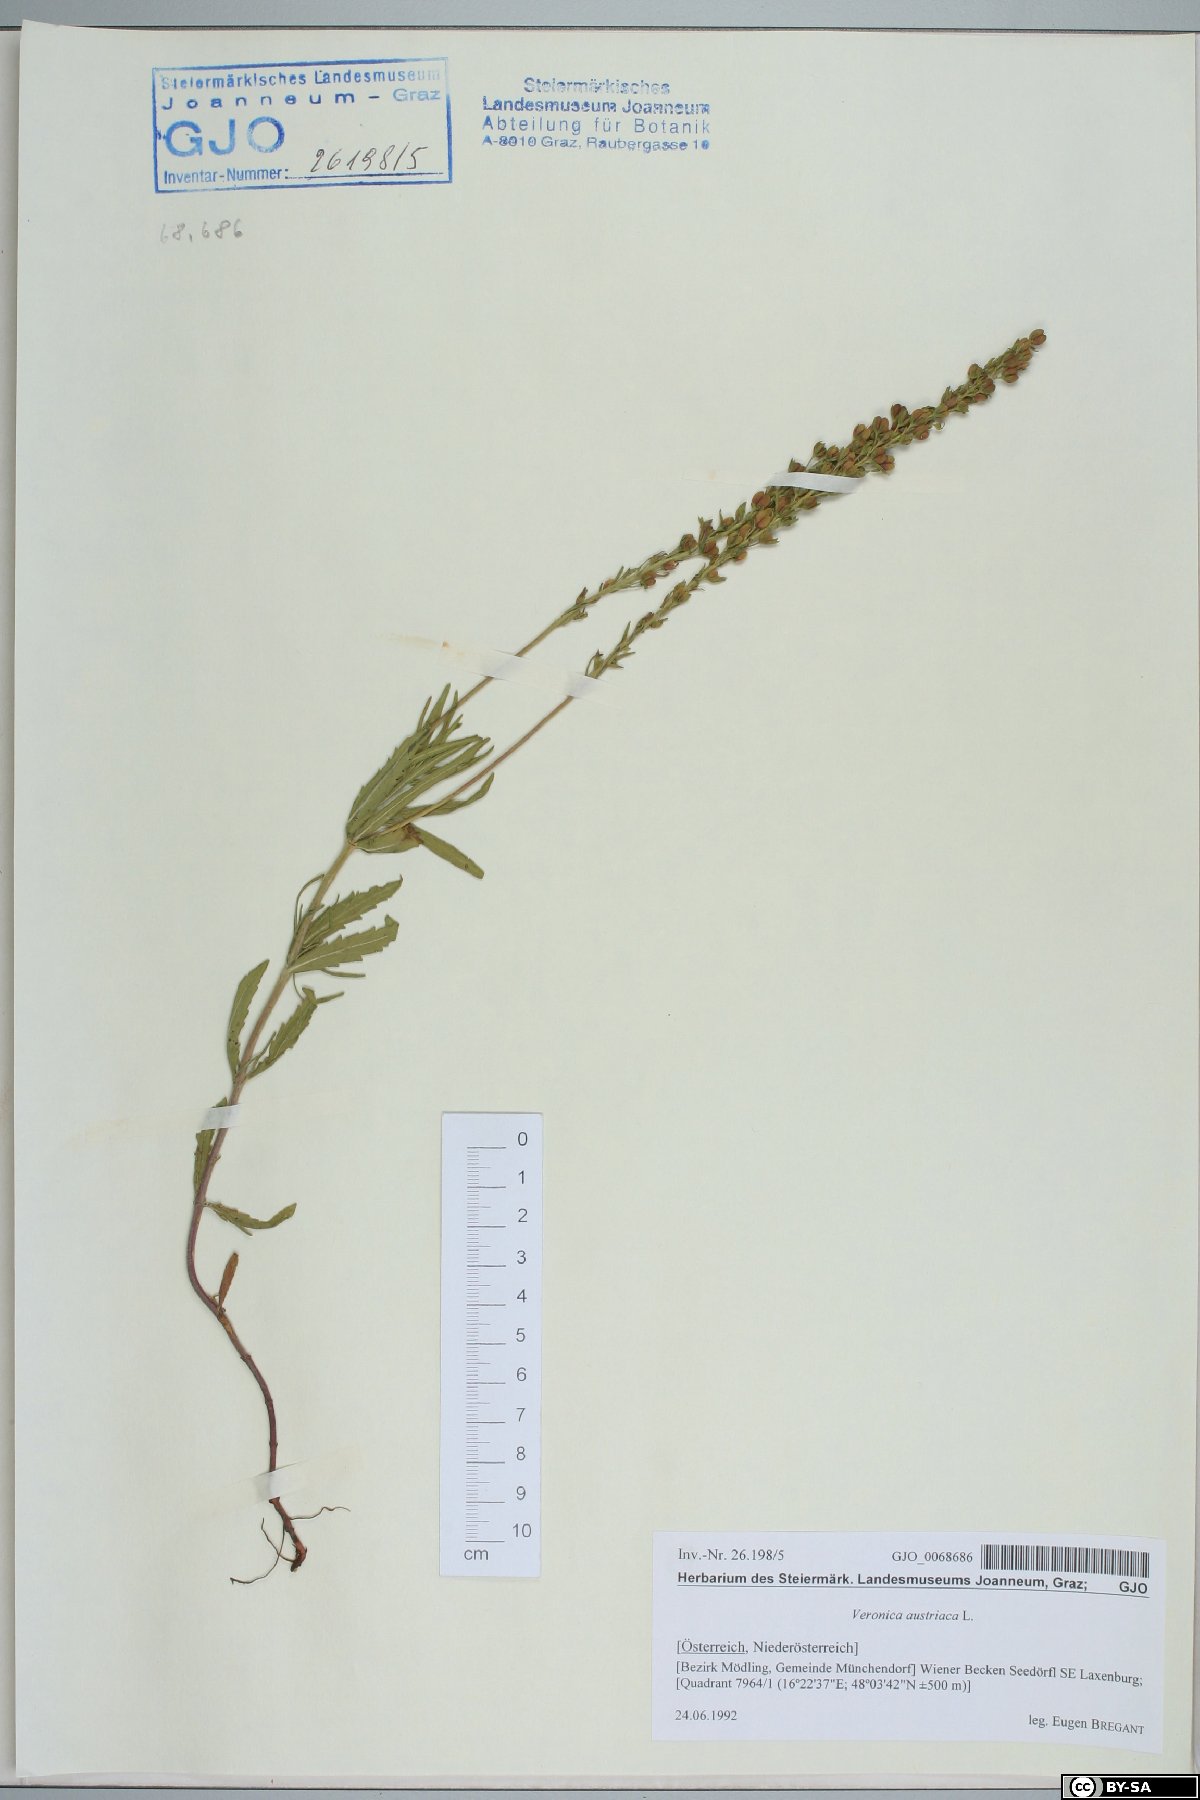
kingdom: Plantae
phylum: Tracheophyta
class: Magnoliopsida
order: Lamiales
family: Plantaginaceae
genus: Veronica
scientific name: Veronica austriaca
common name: Large speedwell
